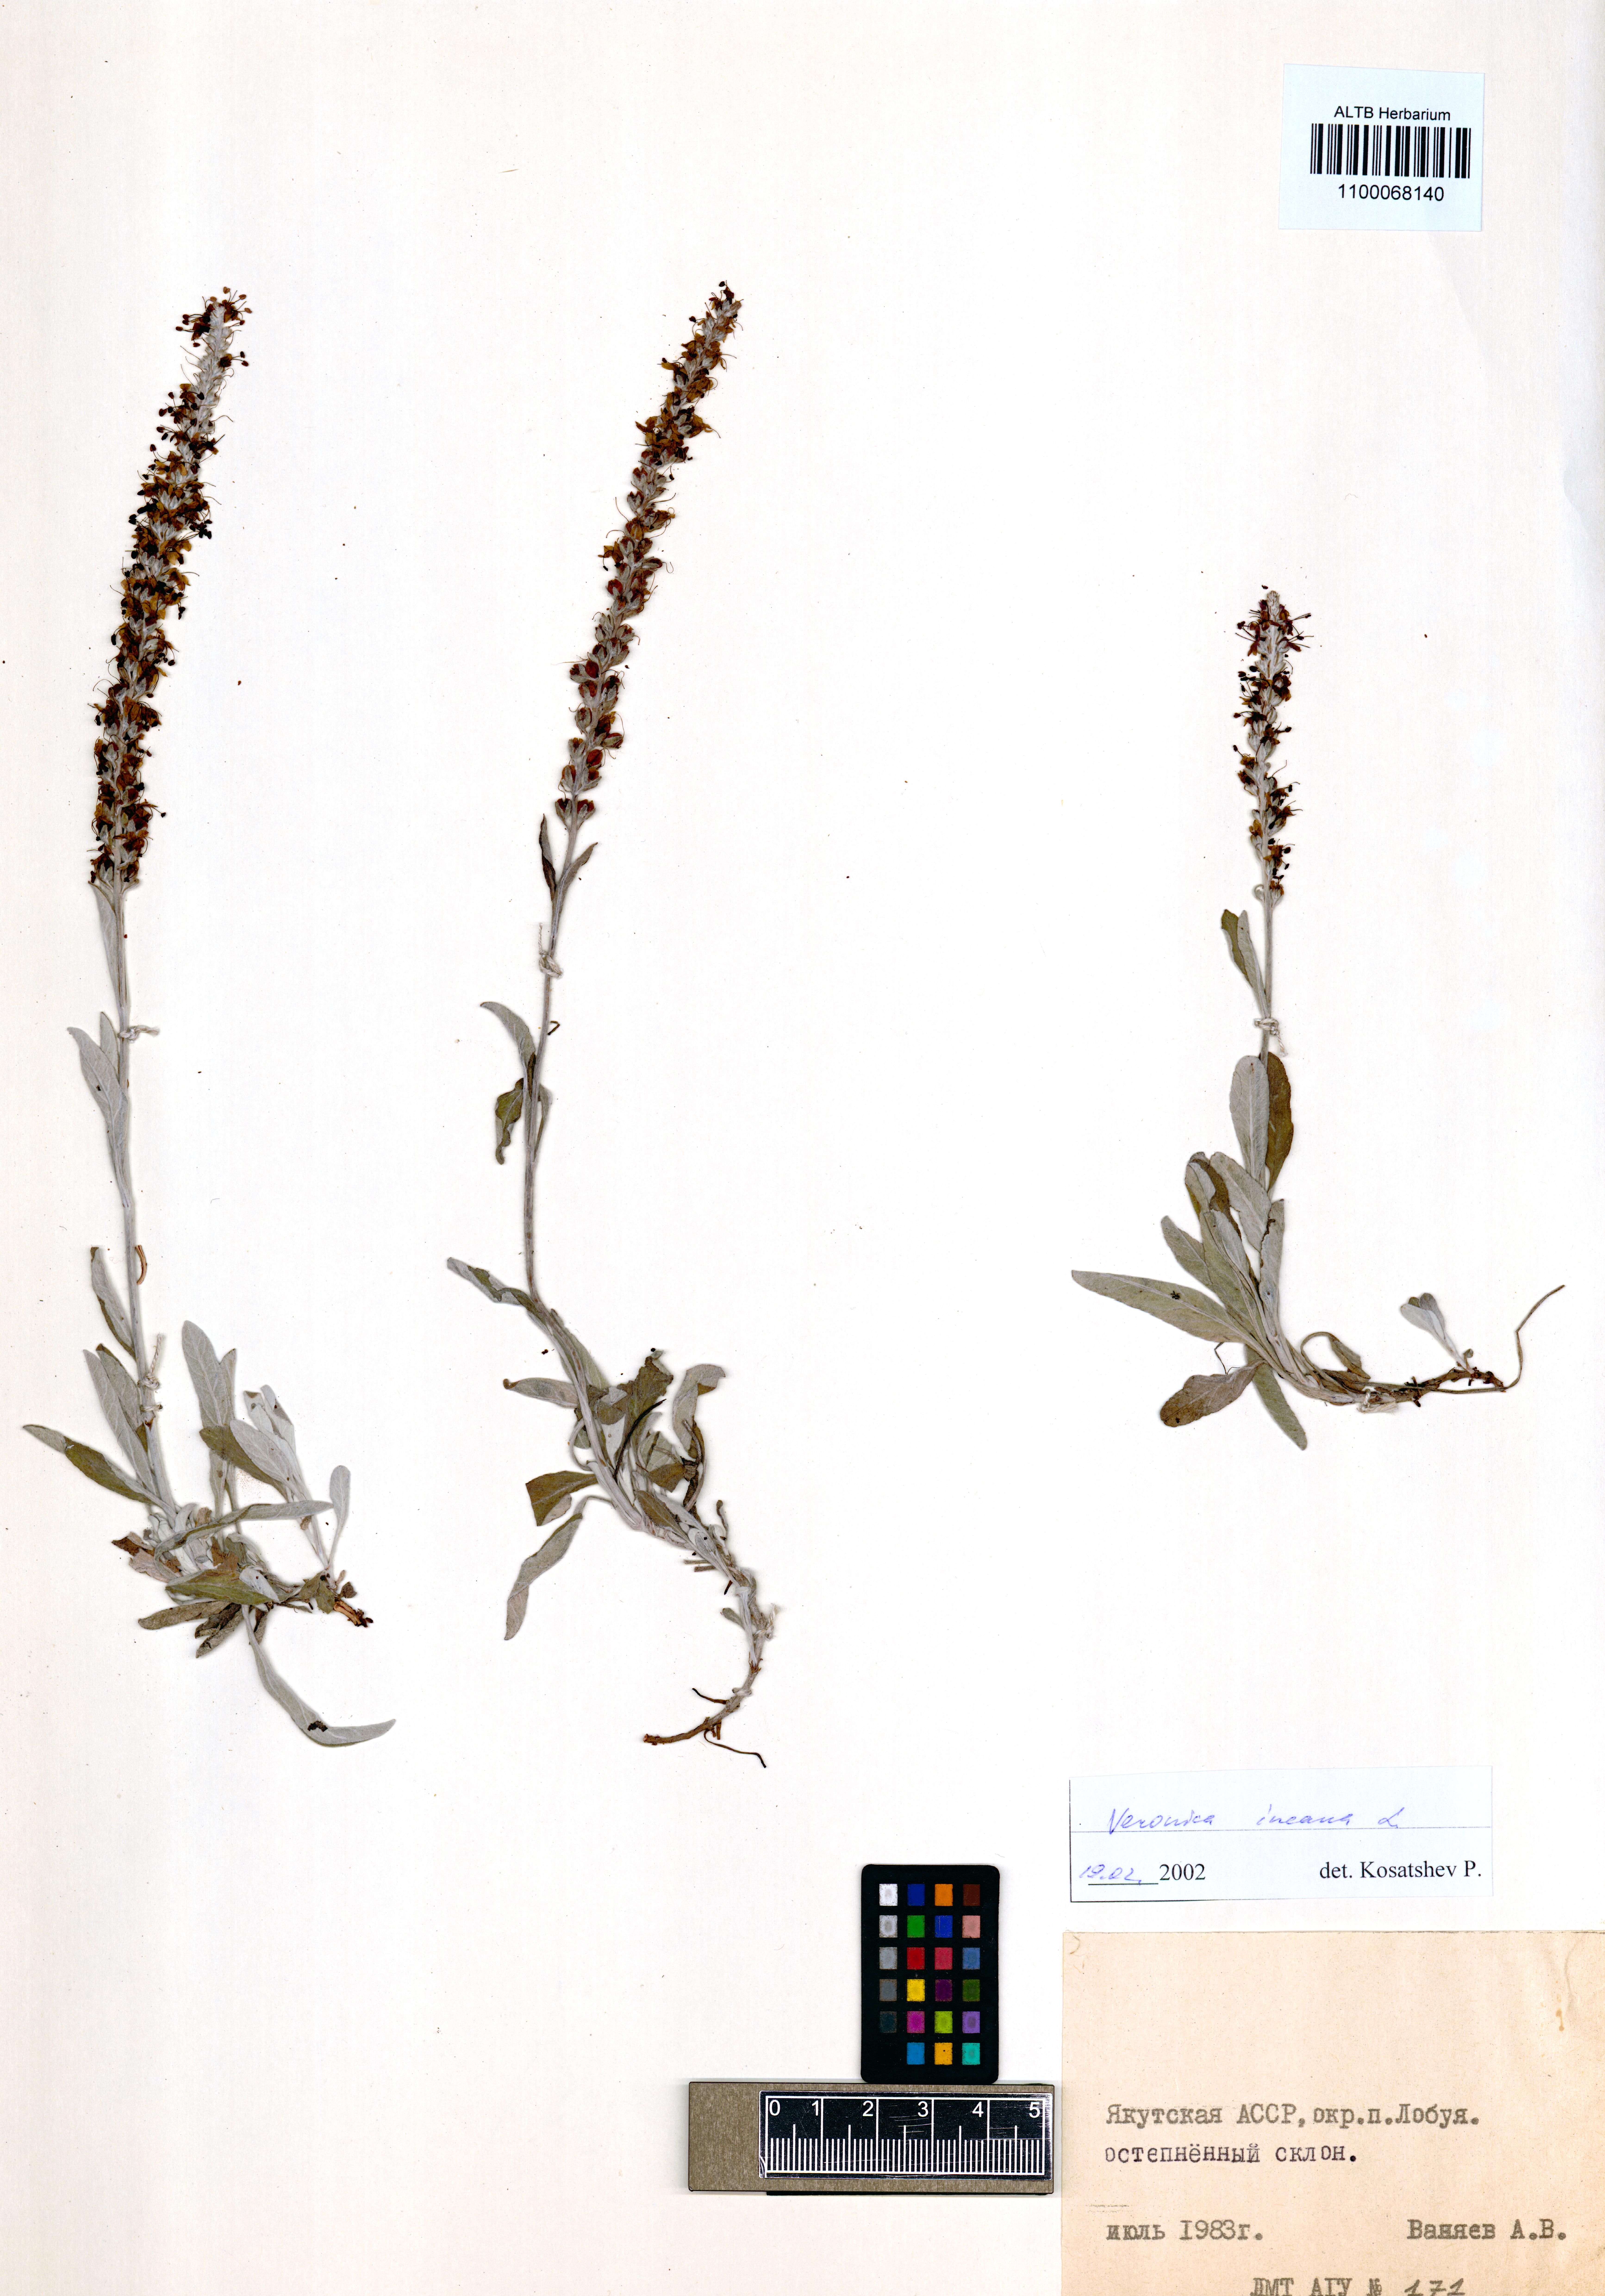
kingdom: Plantae
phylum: Tracheophyta
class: Magnoliopsida
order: Lamiales
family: Plantaginaceae
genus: Veronica
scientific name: Veronica incana
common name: Silver speedwell
